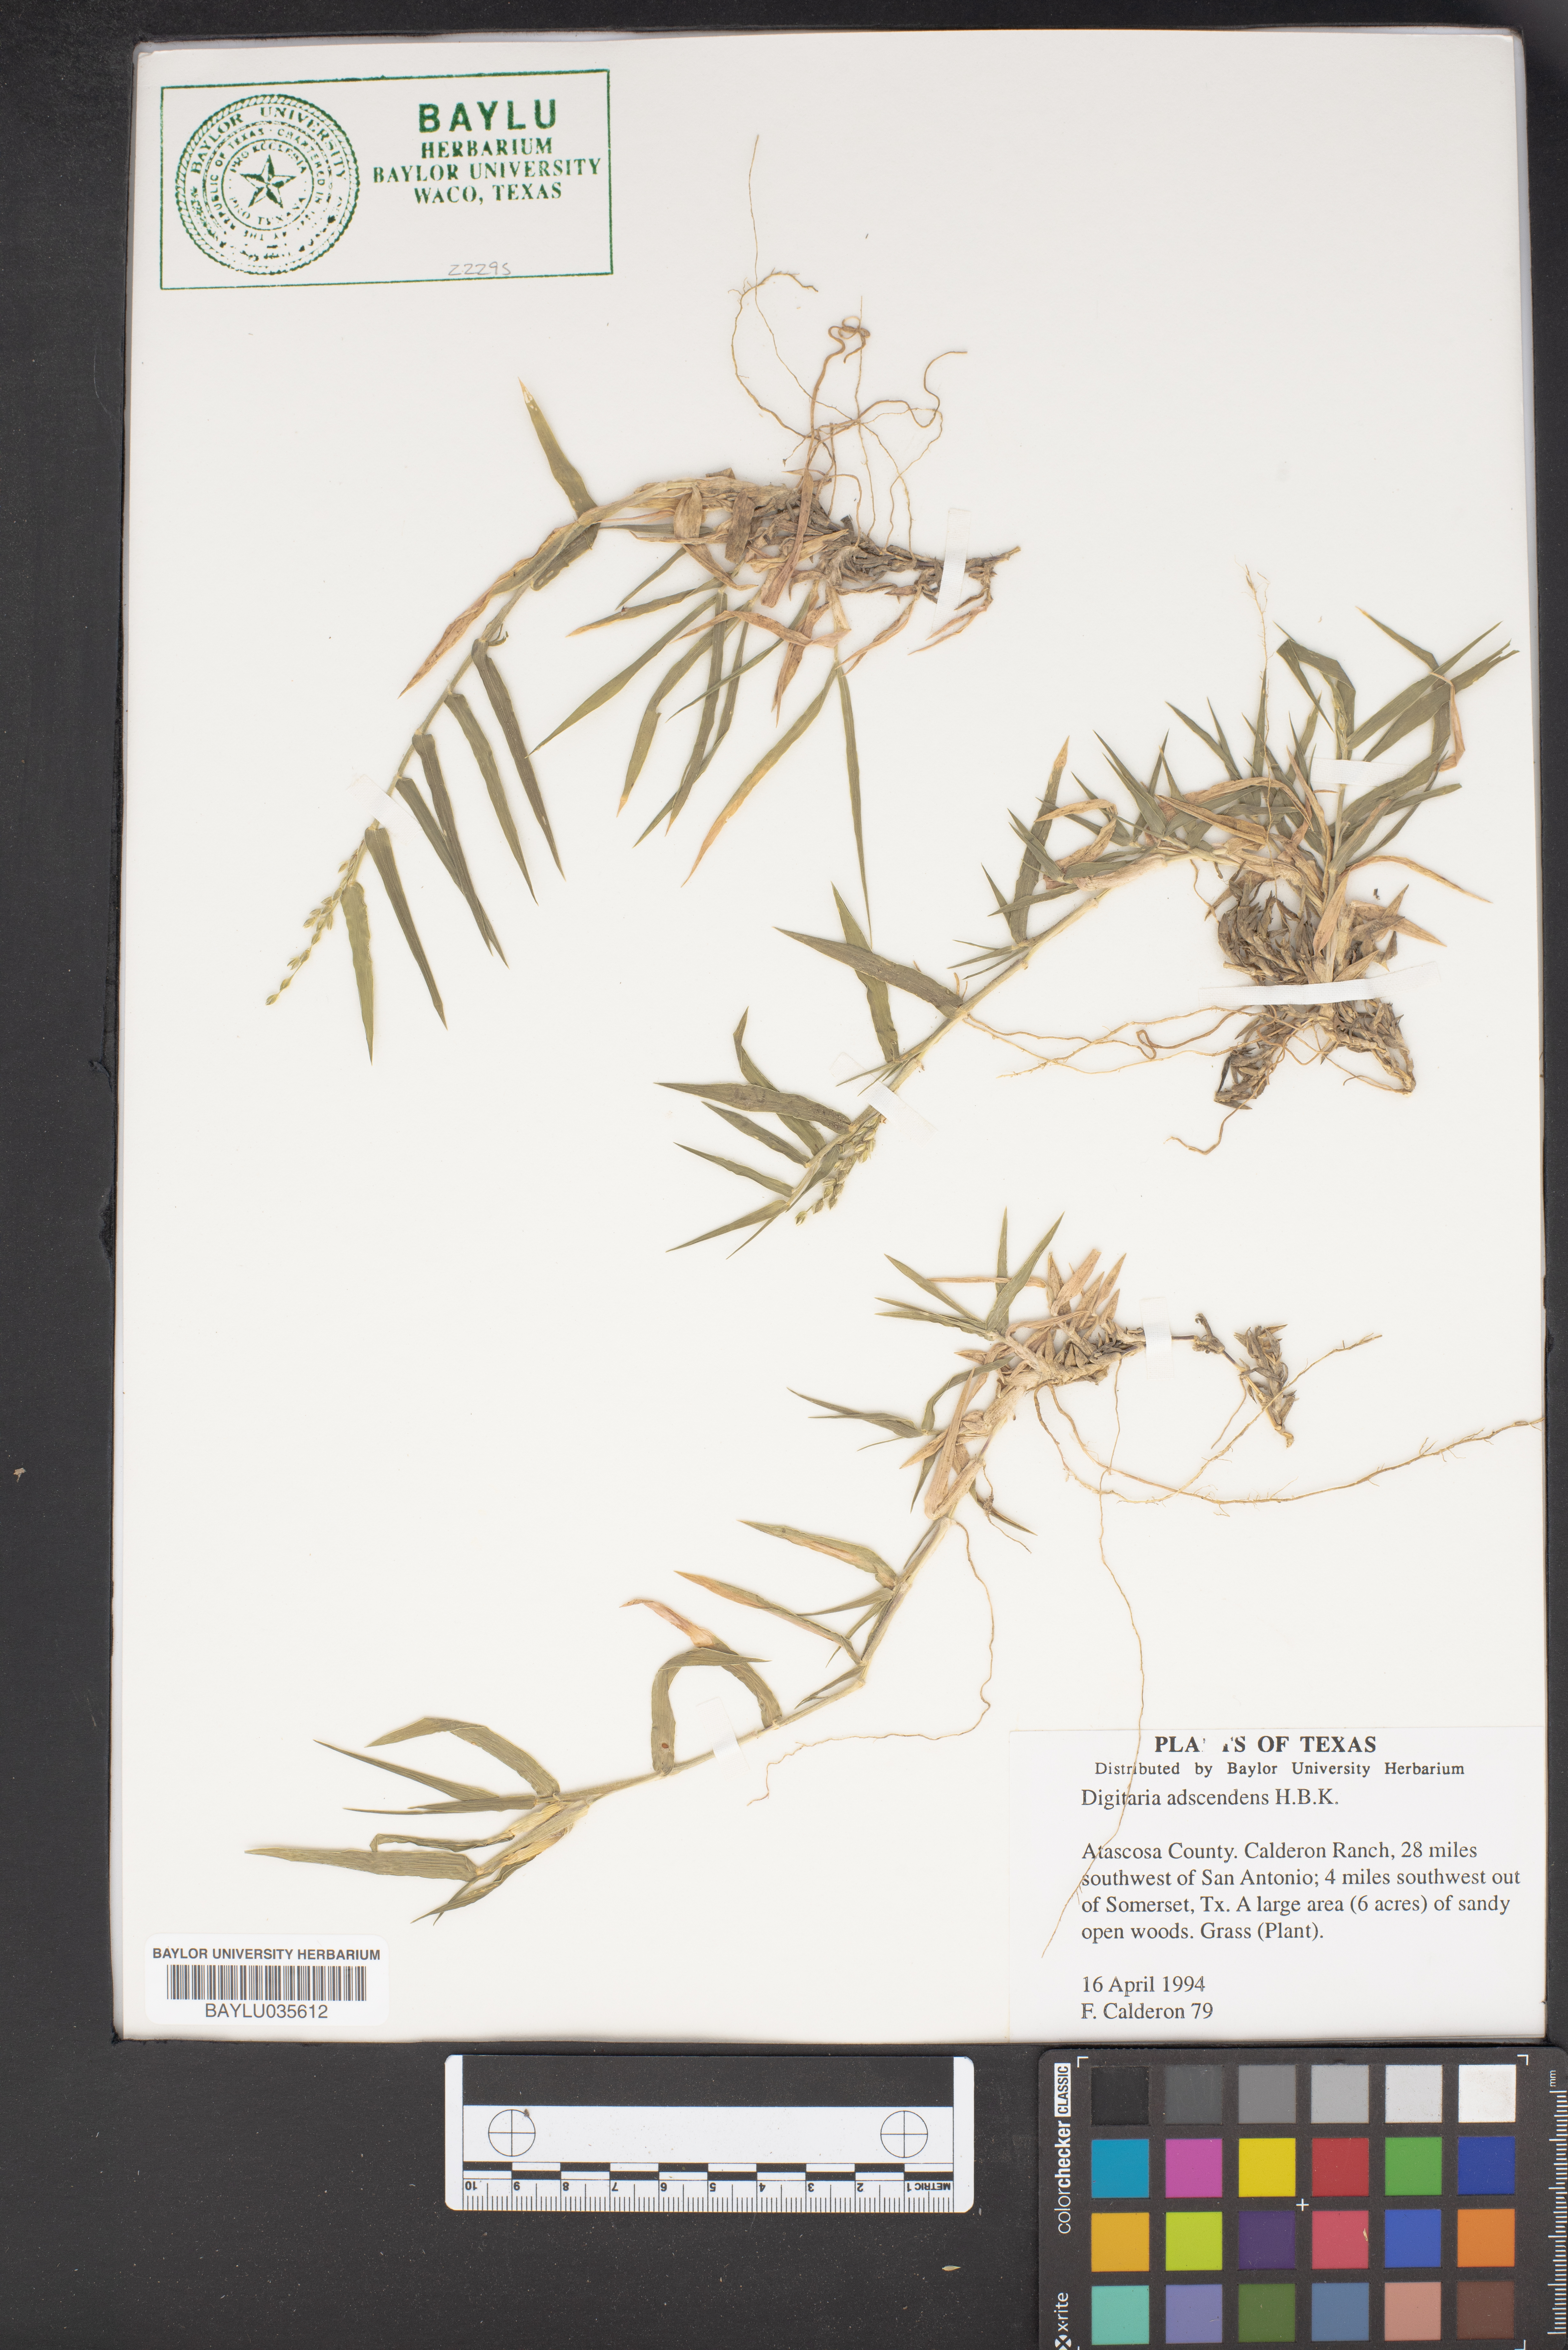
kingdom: Plantae
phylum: Tracheophyta
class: Liliopsida
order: Poales
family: Poaceae
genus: Digitaria
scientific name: Digitaria ciliaris
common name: Tropical finger-grass
